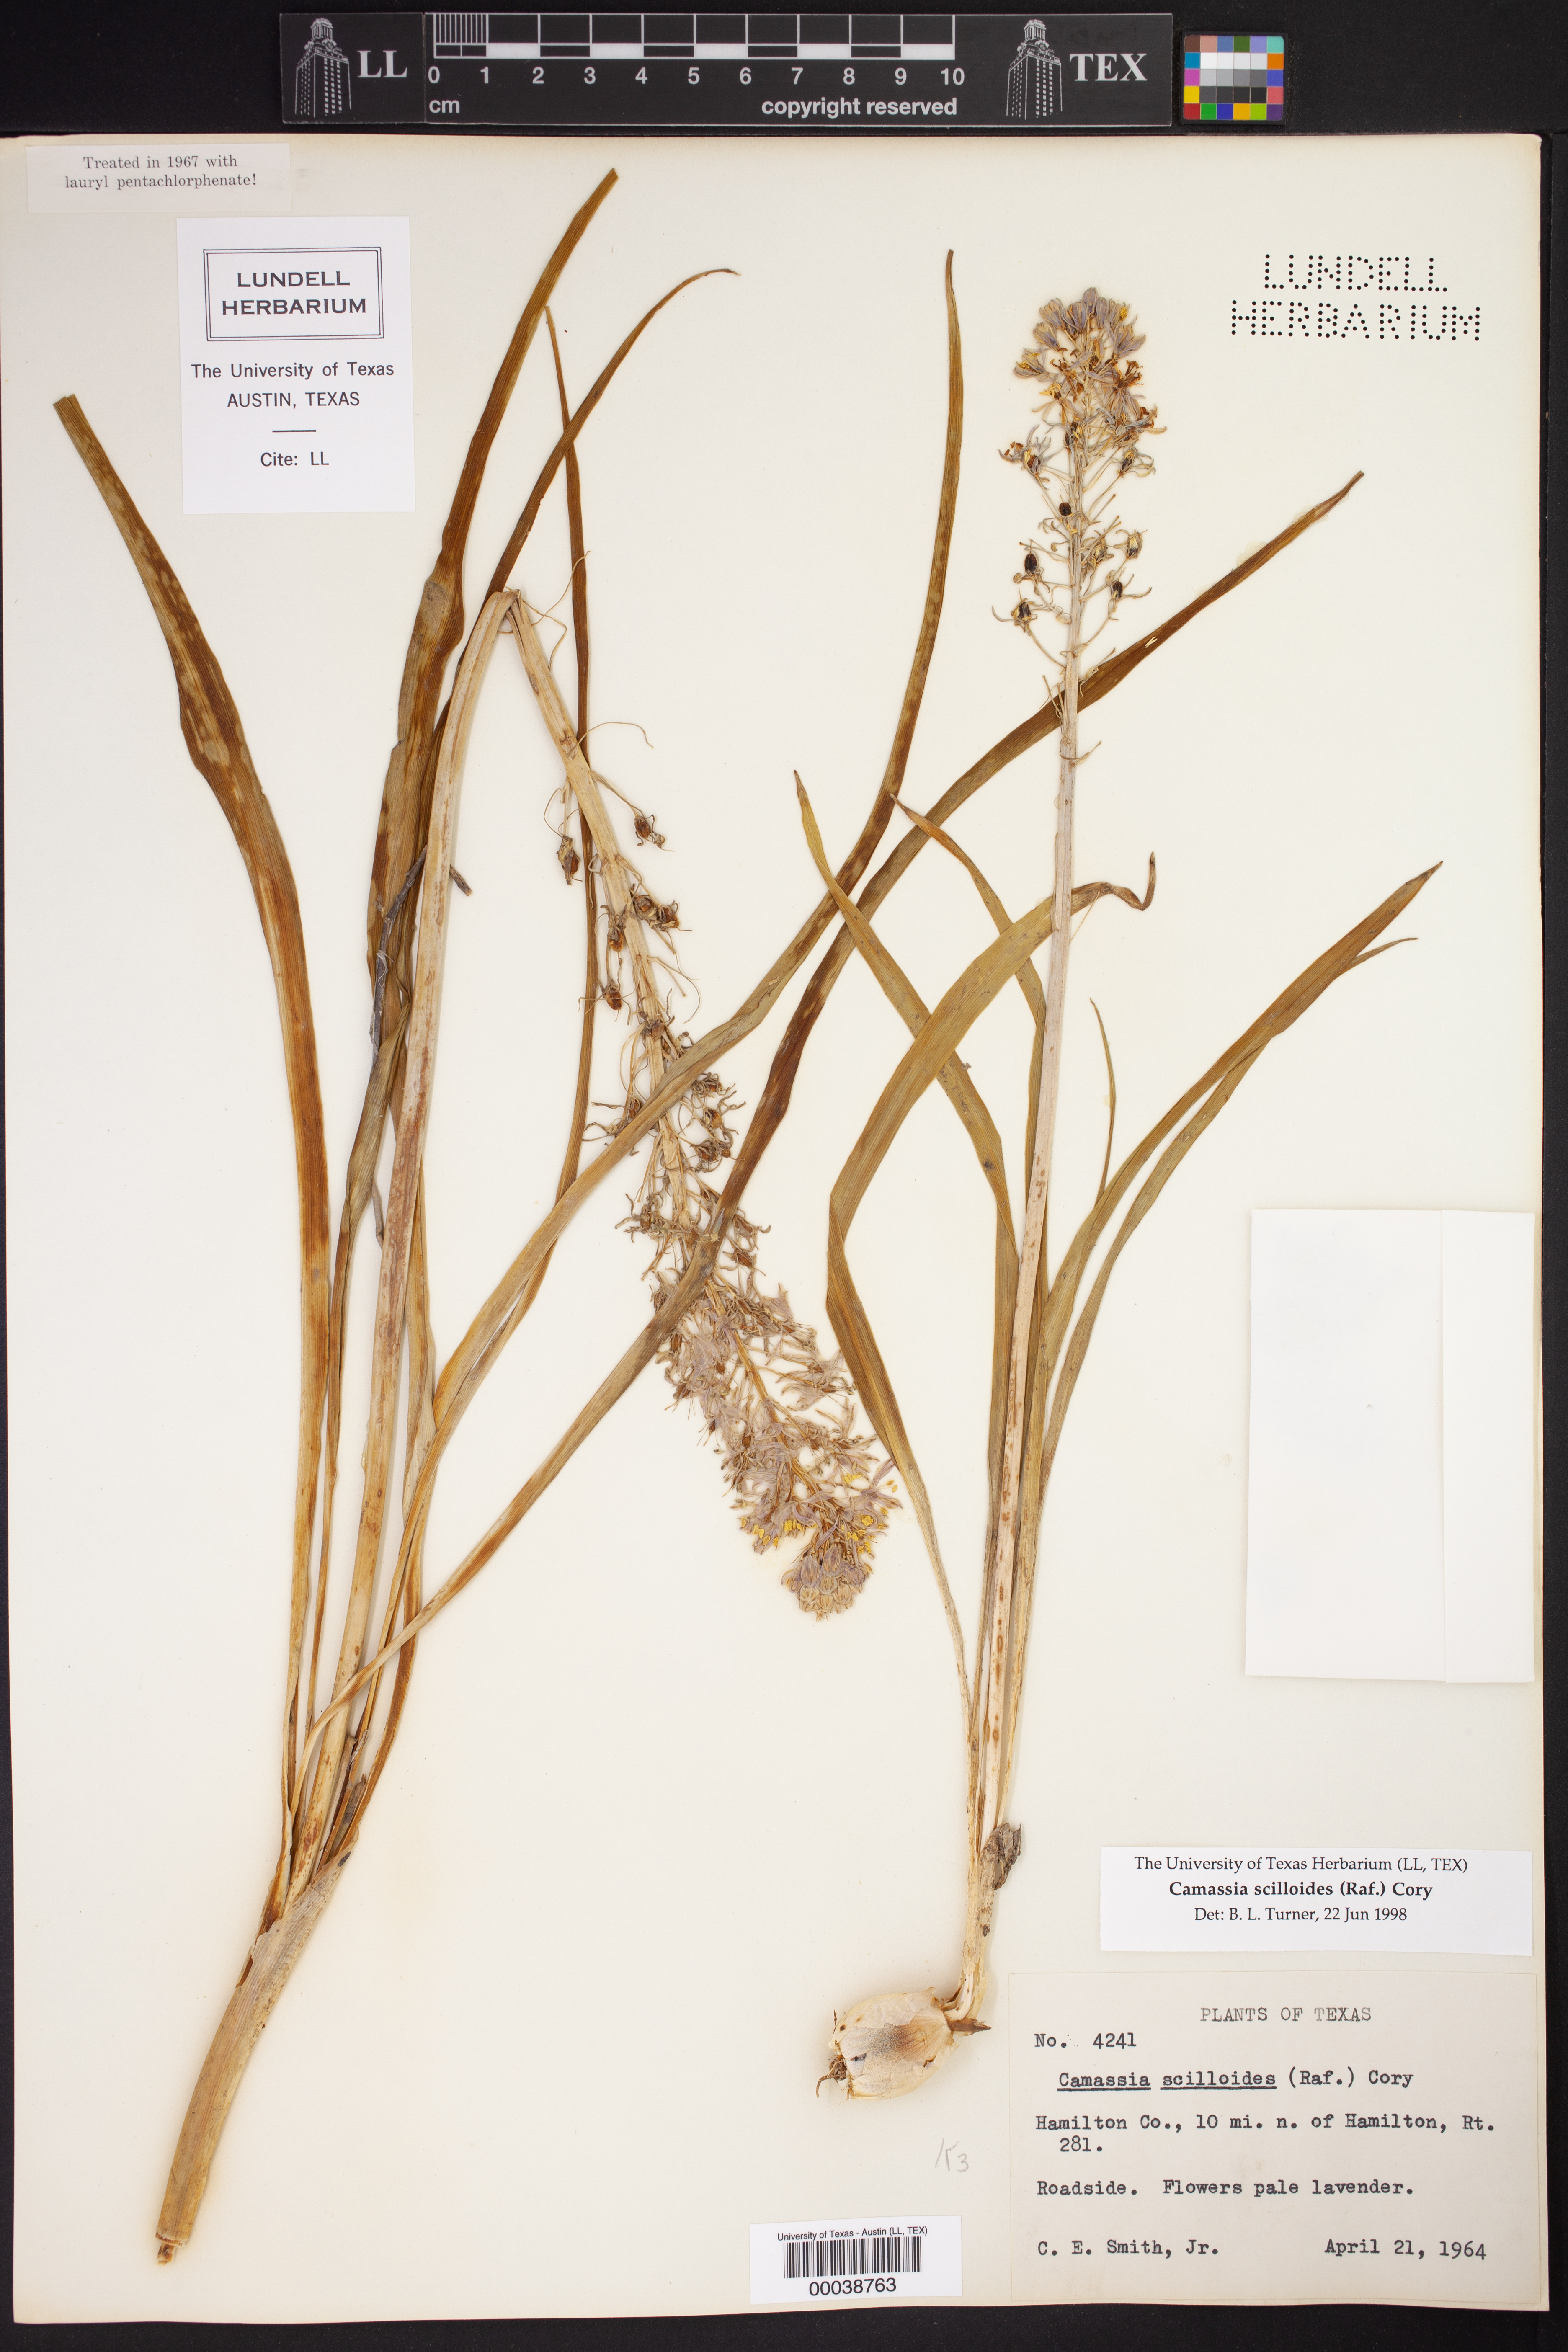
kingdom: Plantae
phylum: Tracheophyta
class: Liliopsida
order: Asparagales
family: Asparagaceae
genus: Camassia
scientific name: Camassia scilloides
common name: Wild hyacinth
